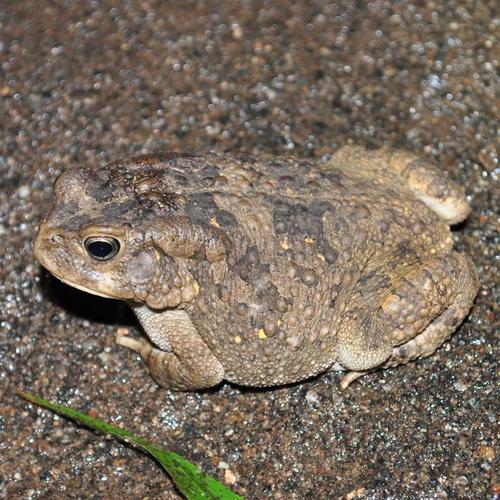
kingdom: Animalia
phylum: Chordata
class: Amphibia
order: Anura
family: Bufonidae
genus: Sclerophrys
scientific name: Sclerophrys gutturalis
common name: African common toad
